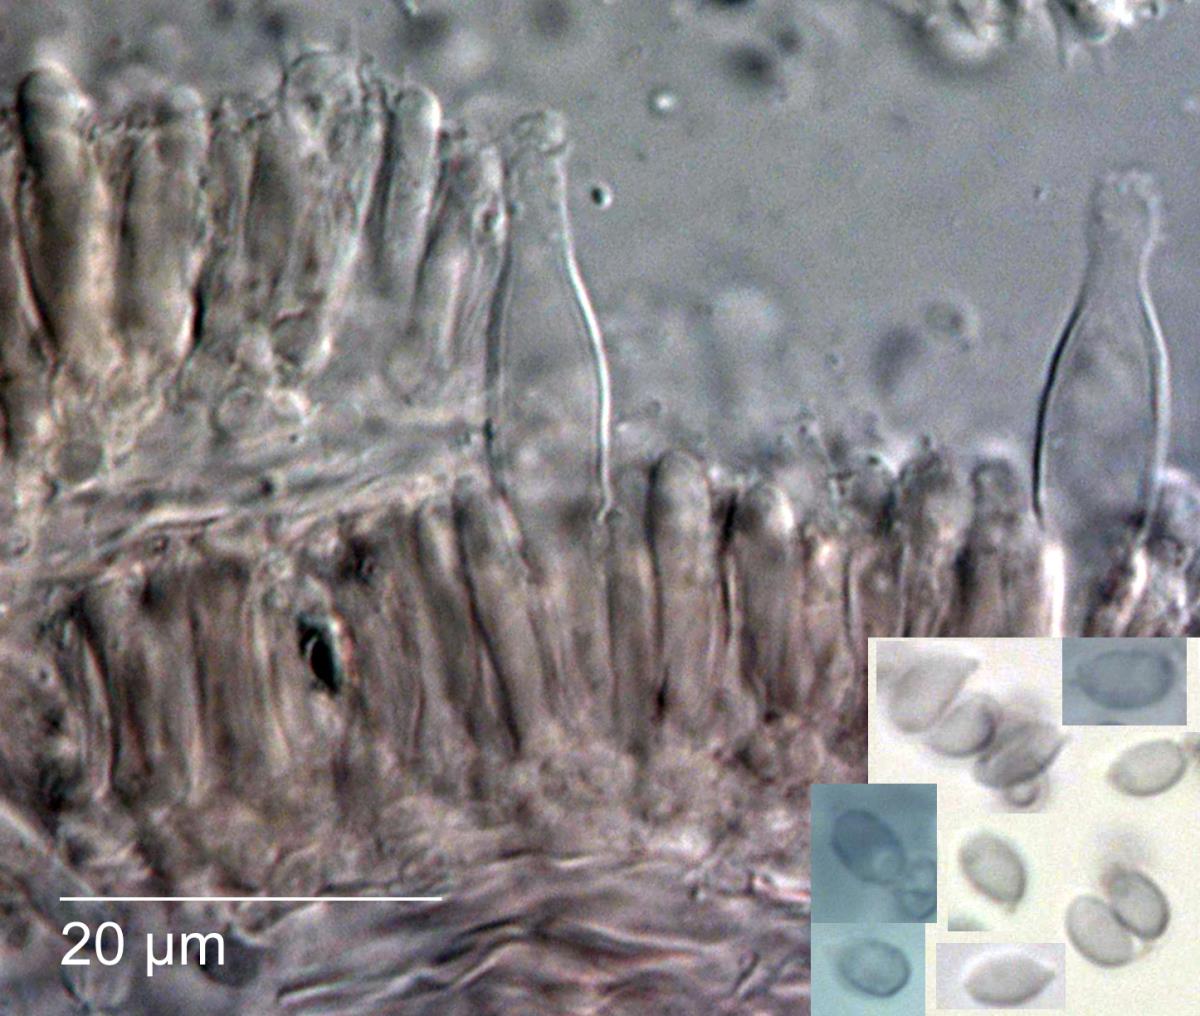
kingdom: Fungi
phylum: Basidiomycota
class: Agaricomycetes
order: Agaricales
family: Tricholomataceae
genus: Delicatula
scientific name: Delicatula
